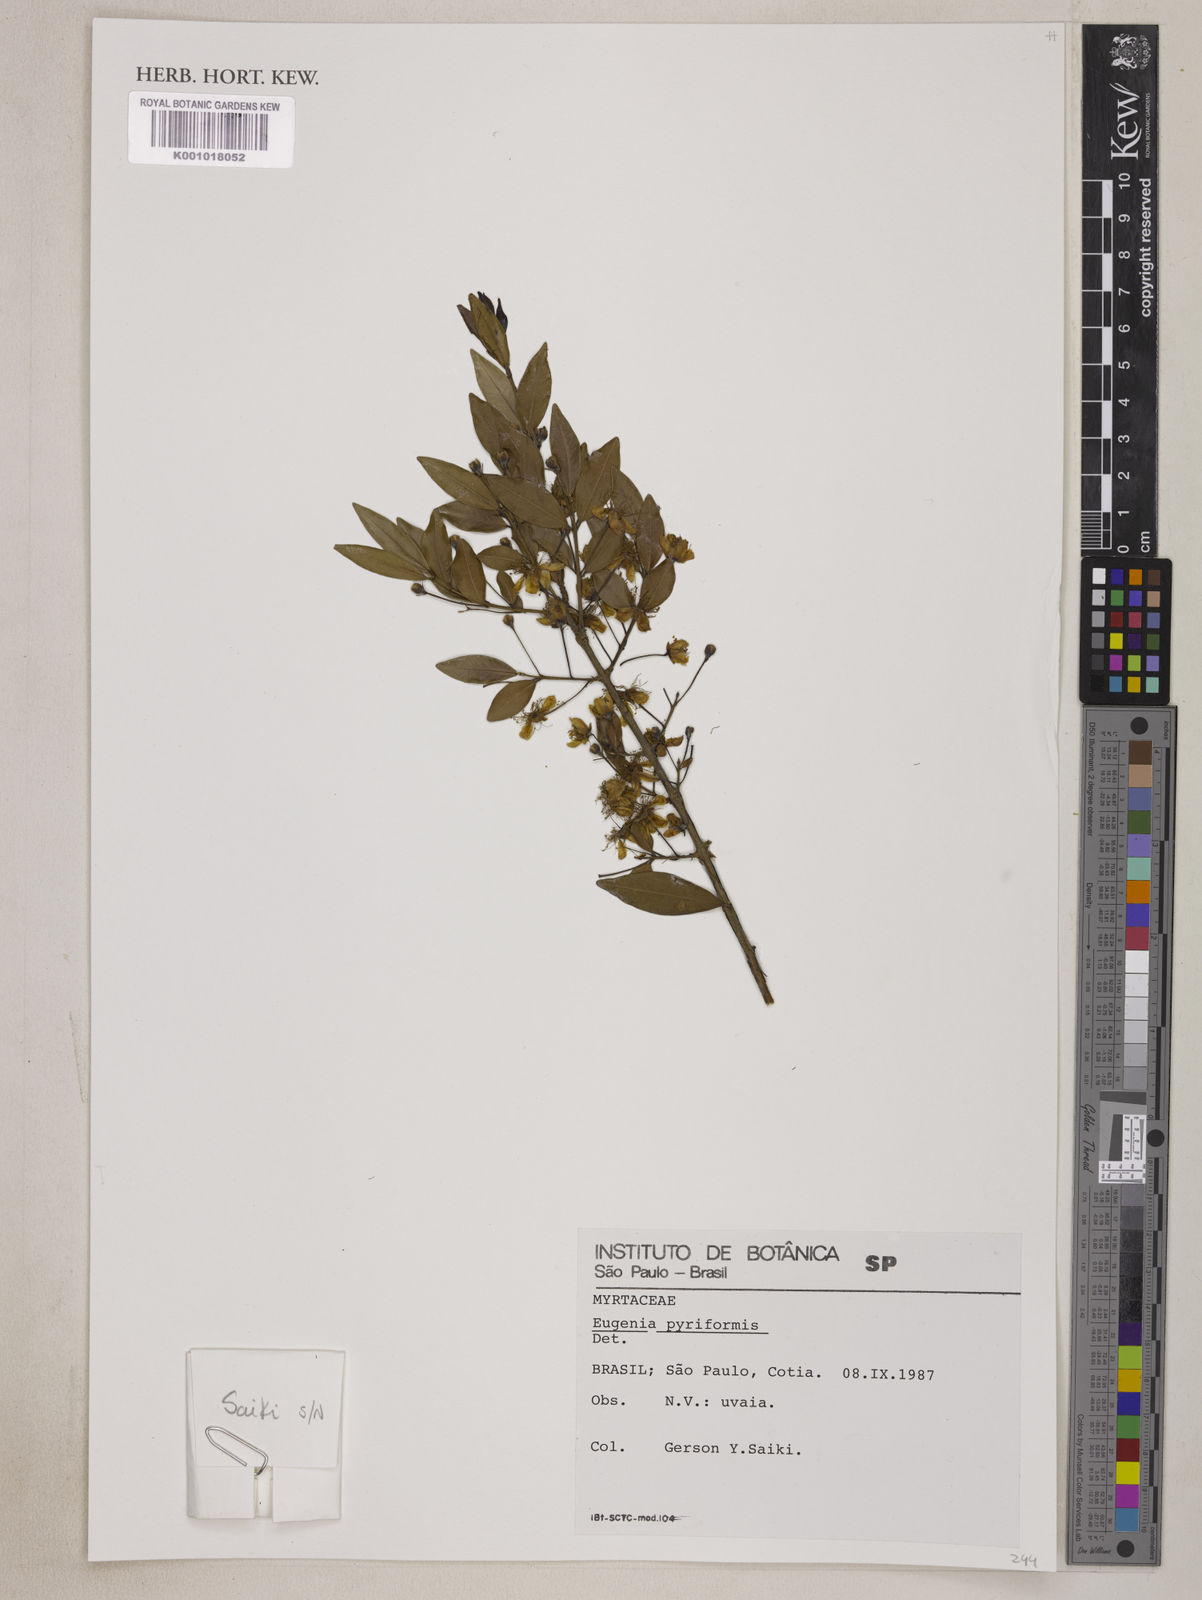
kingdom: Plantae
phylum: Tracheophyta
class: Magnoliopsida
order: Myrtales
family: Myrtaceae
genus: Eugenia
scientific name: Eugenia pyriformis
